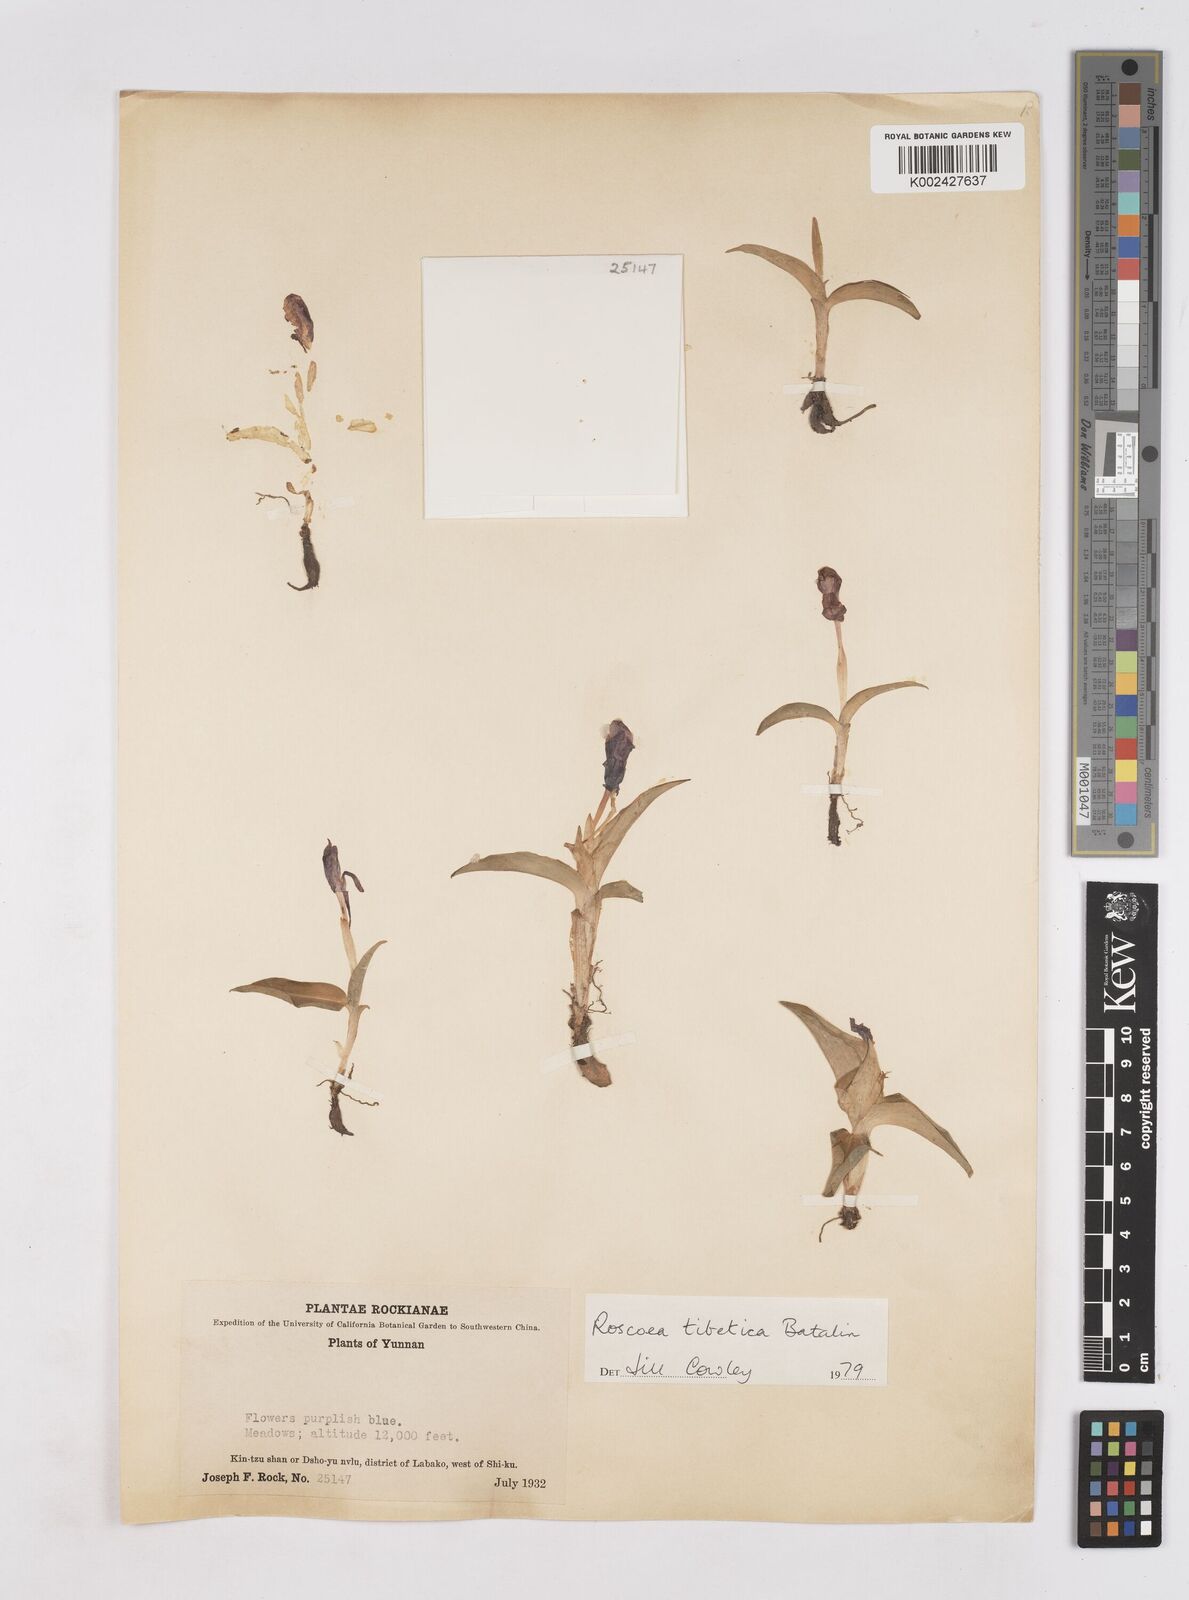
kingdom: Plantae
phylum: Tracheophyta
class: Liliopsida
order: Zingiberales
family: Zingiberaceae
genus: Roscoea
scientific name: Roscoea tibetica
